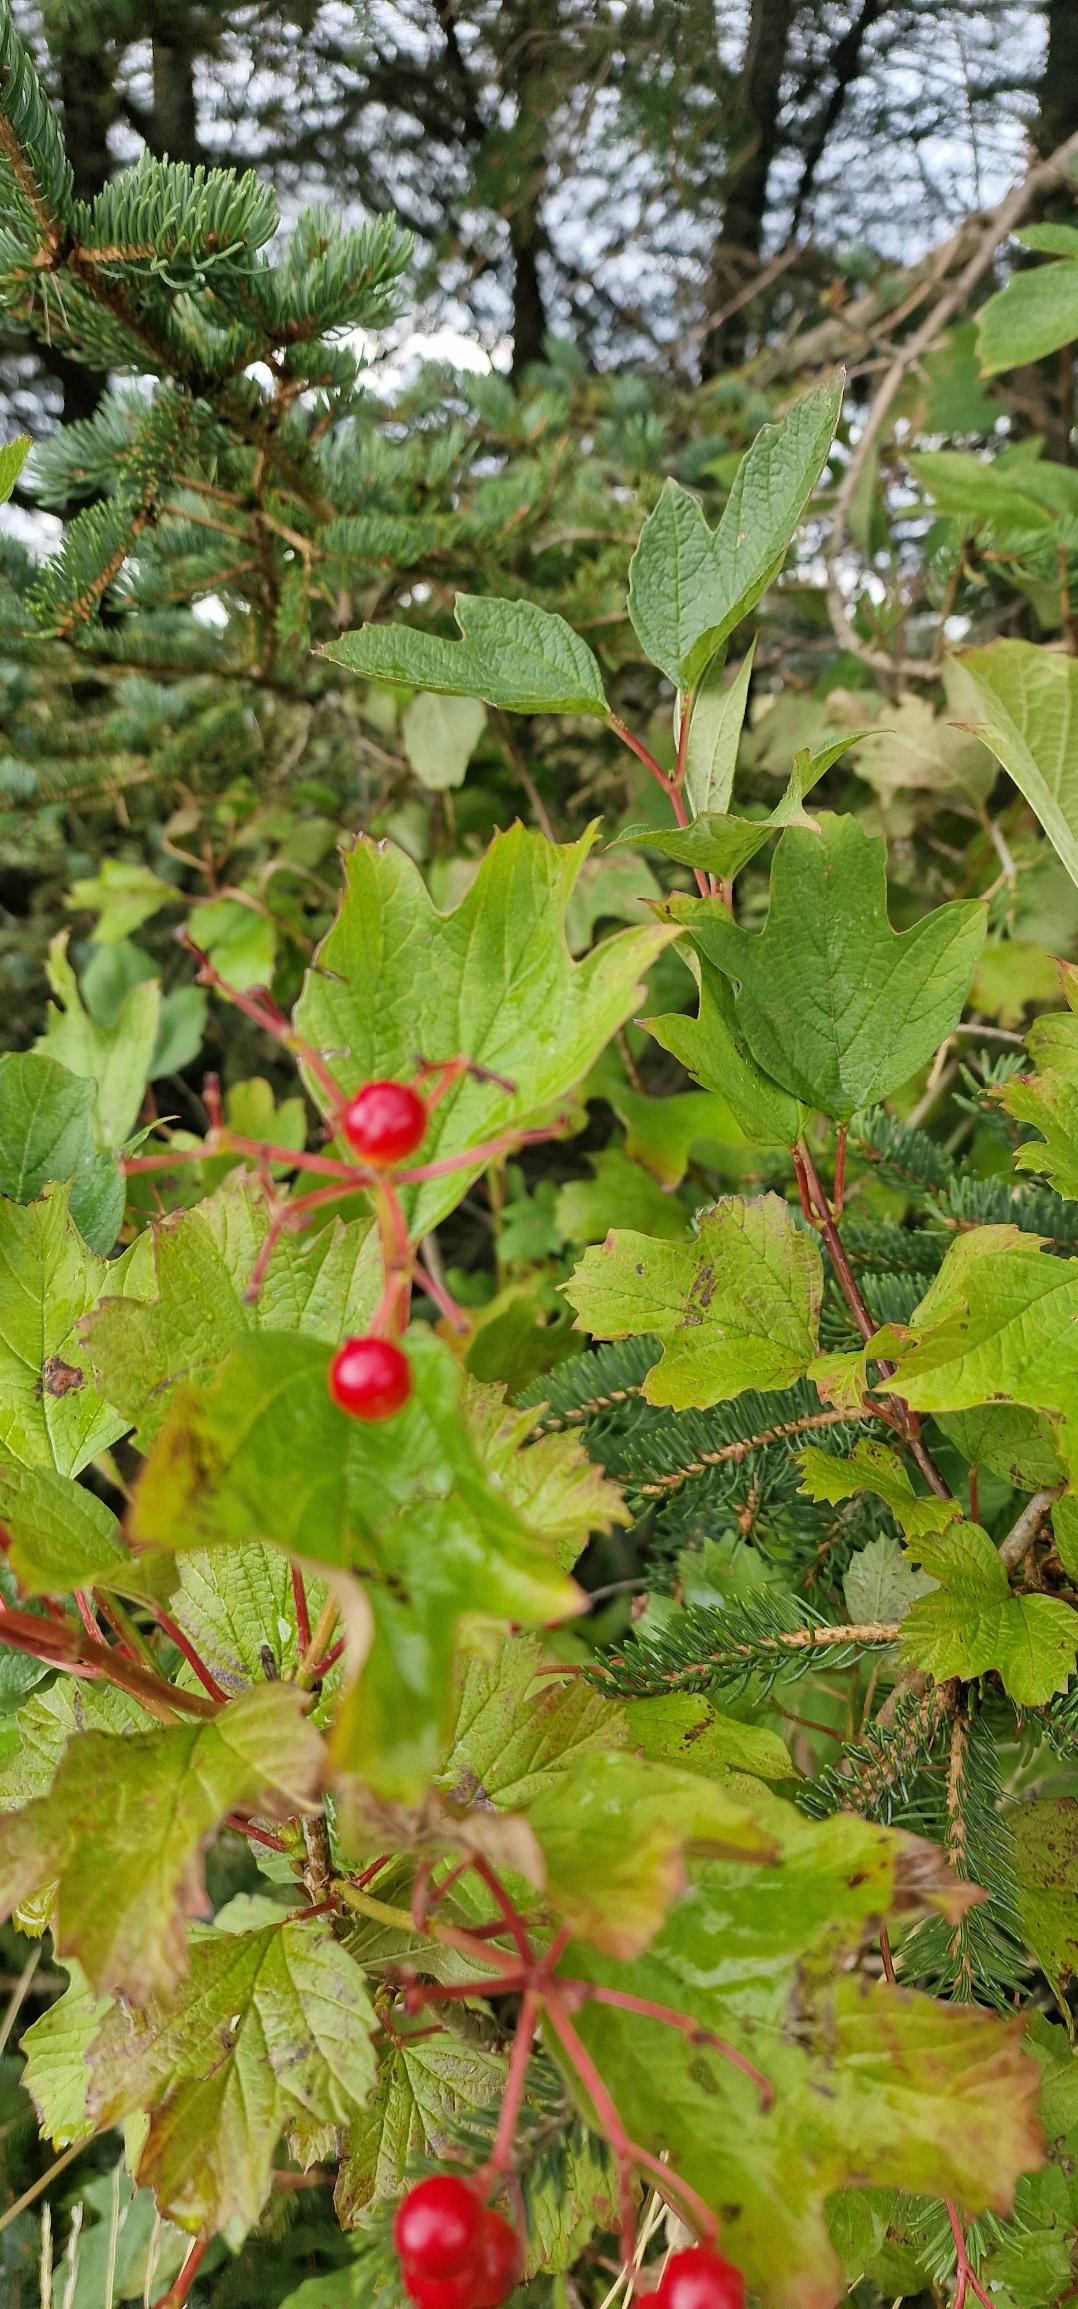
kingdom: Plantae
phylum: Tracheophyta
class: Magnoliopsida
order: Dipsacales
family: Viburnaceae
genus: Viburnum
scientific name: Viburnum opulus
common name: Kvalkved
